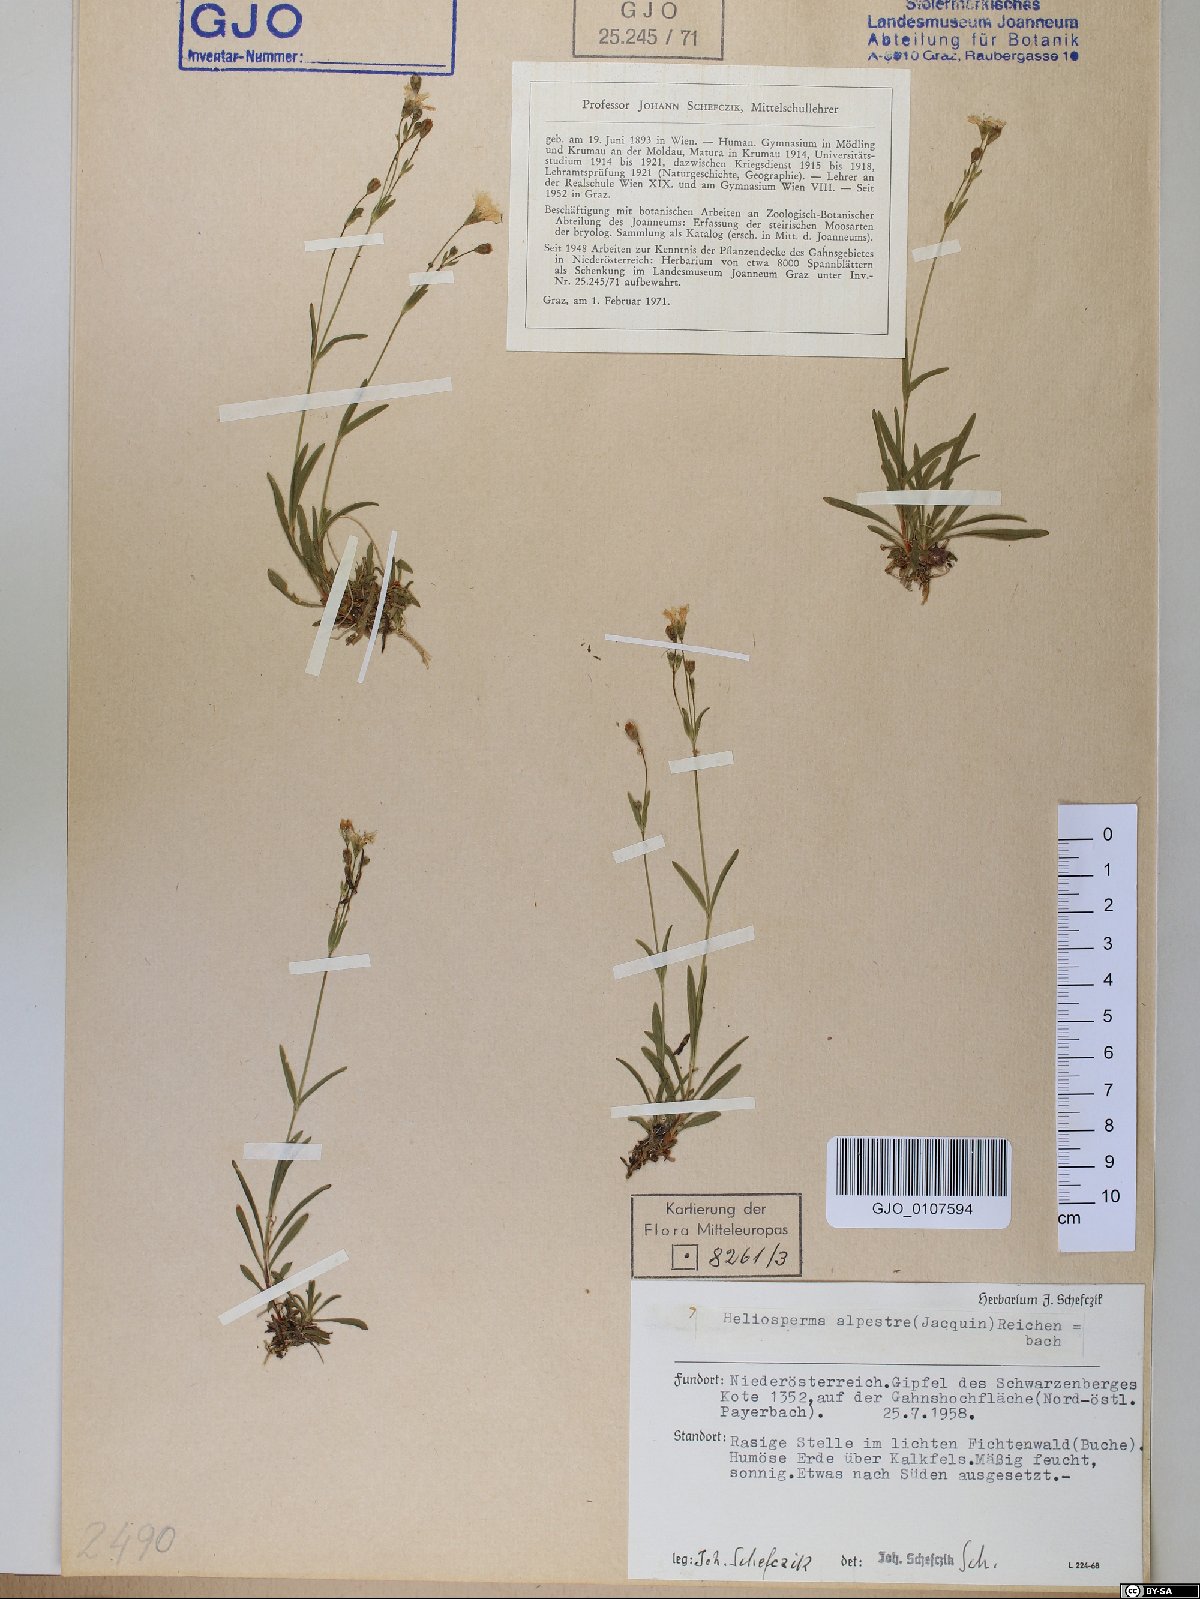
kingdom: Plantae
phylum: Tracheophyta
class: Magnoliopsida
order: Caryophyllales
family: Caryophyllaceae
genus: Heliosperma
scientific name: Heliosperma alpestre
